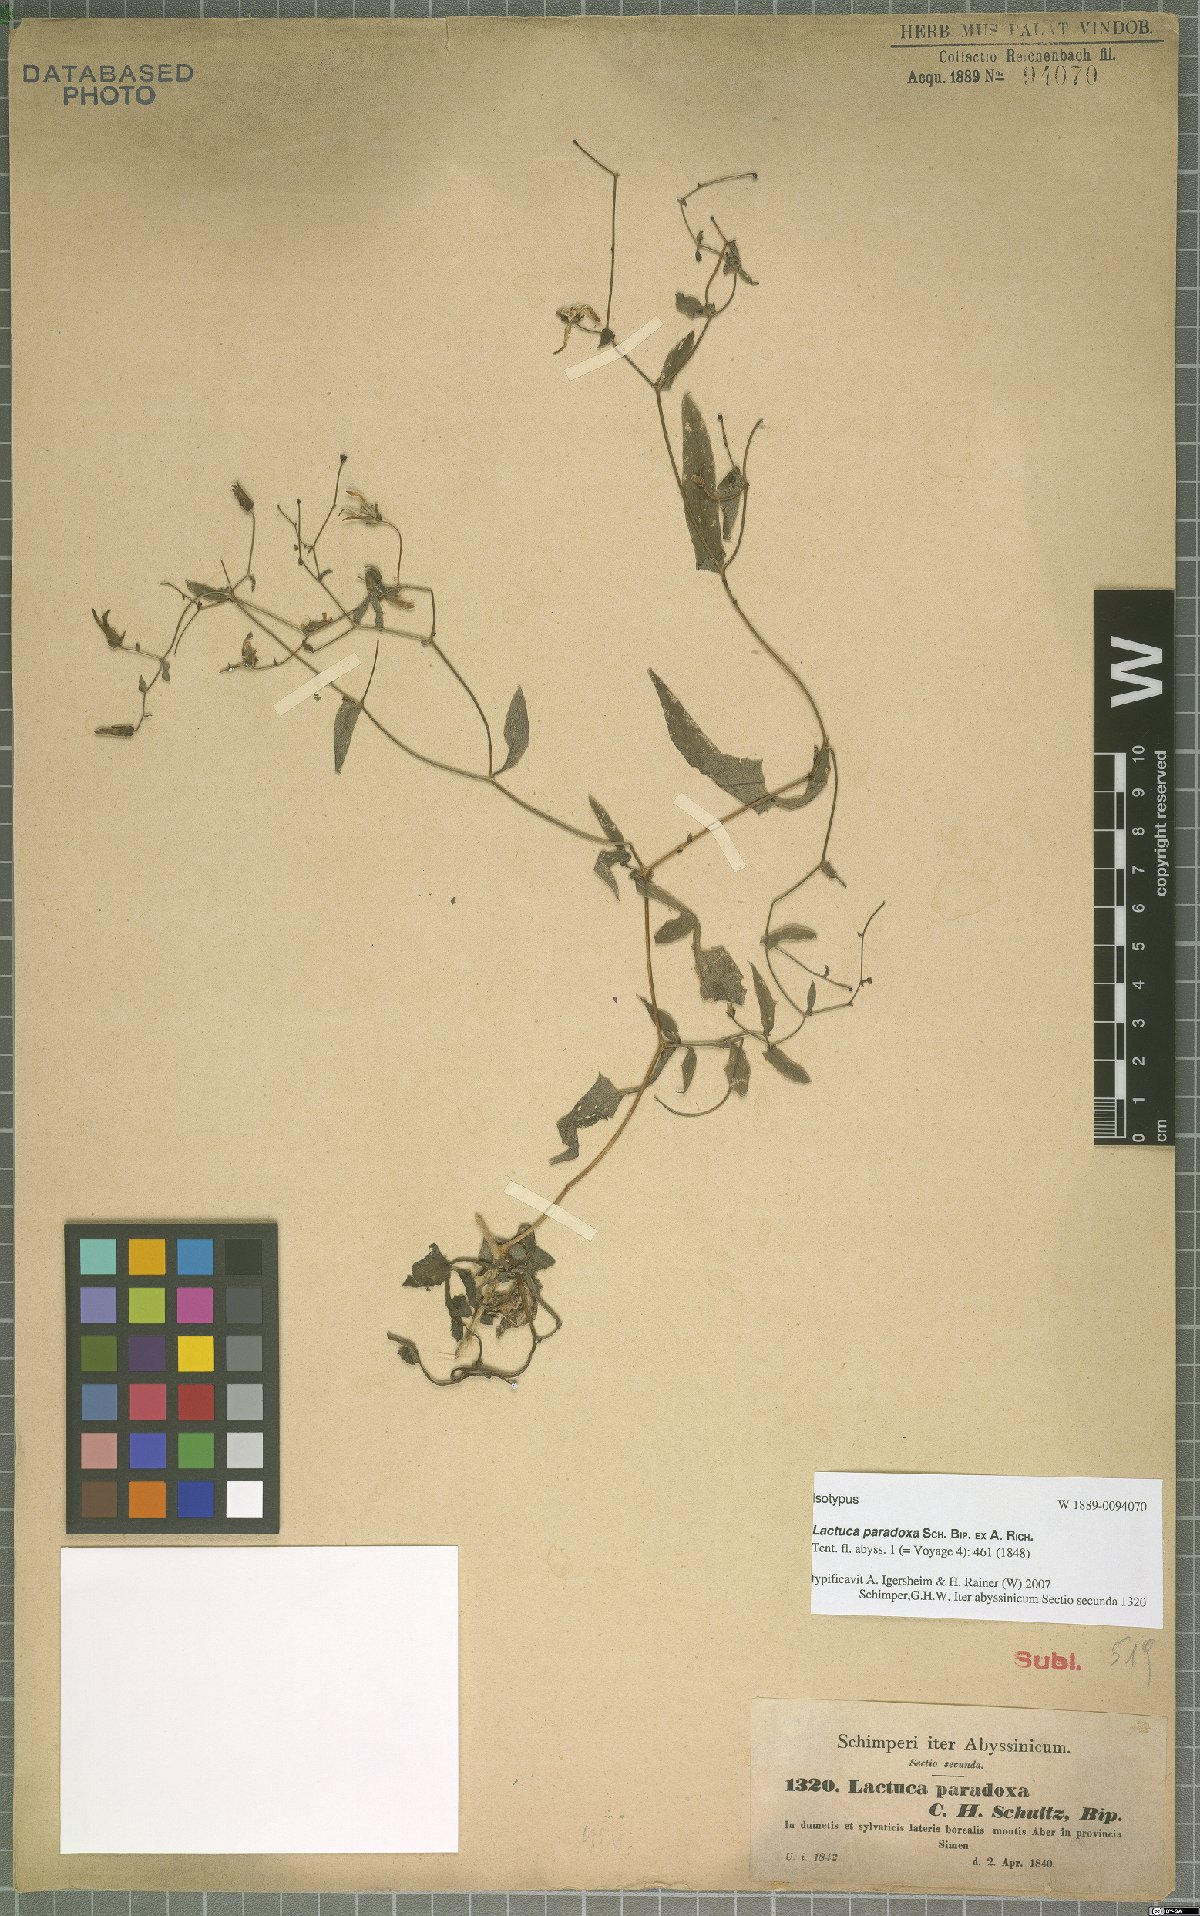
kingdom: Plantae
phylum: Tracheophyta
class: Magnoliopsida
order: Asterales
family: Asteraceae
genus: Lactuca
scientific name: Lactuca paradoxa
